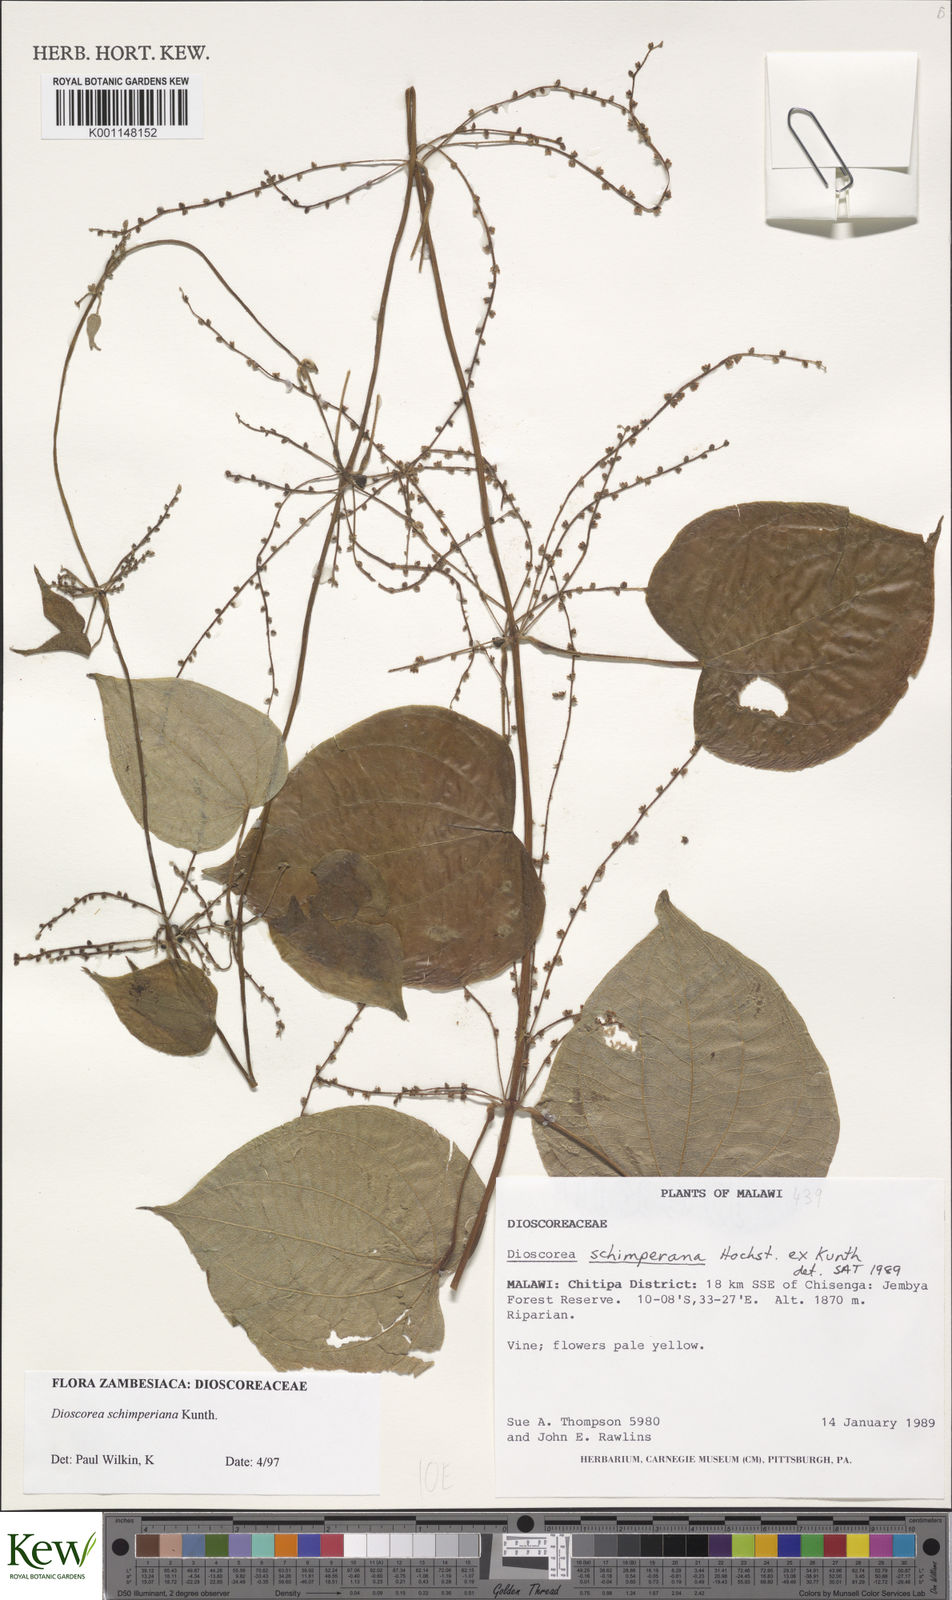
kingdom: Plantae
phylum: Tracheophyta
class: Liliopsida
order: Dioscoreales
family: Dioscoreaceae
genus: Dioscorea
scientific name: Dioscorea schimperiana
